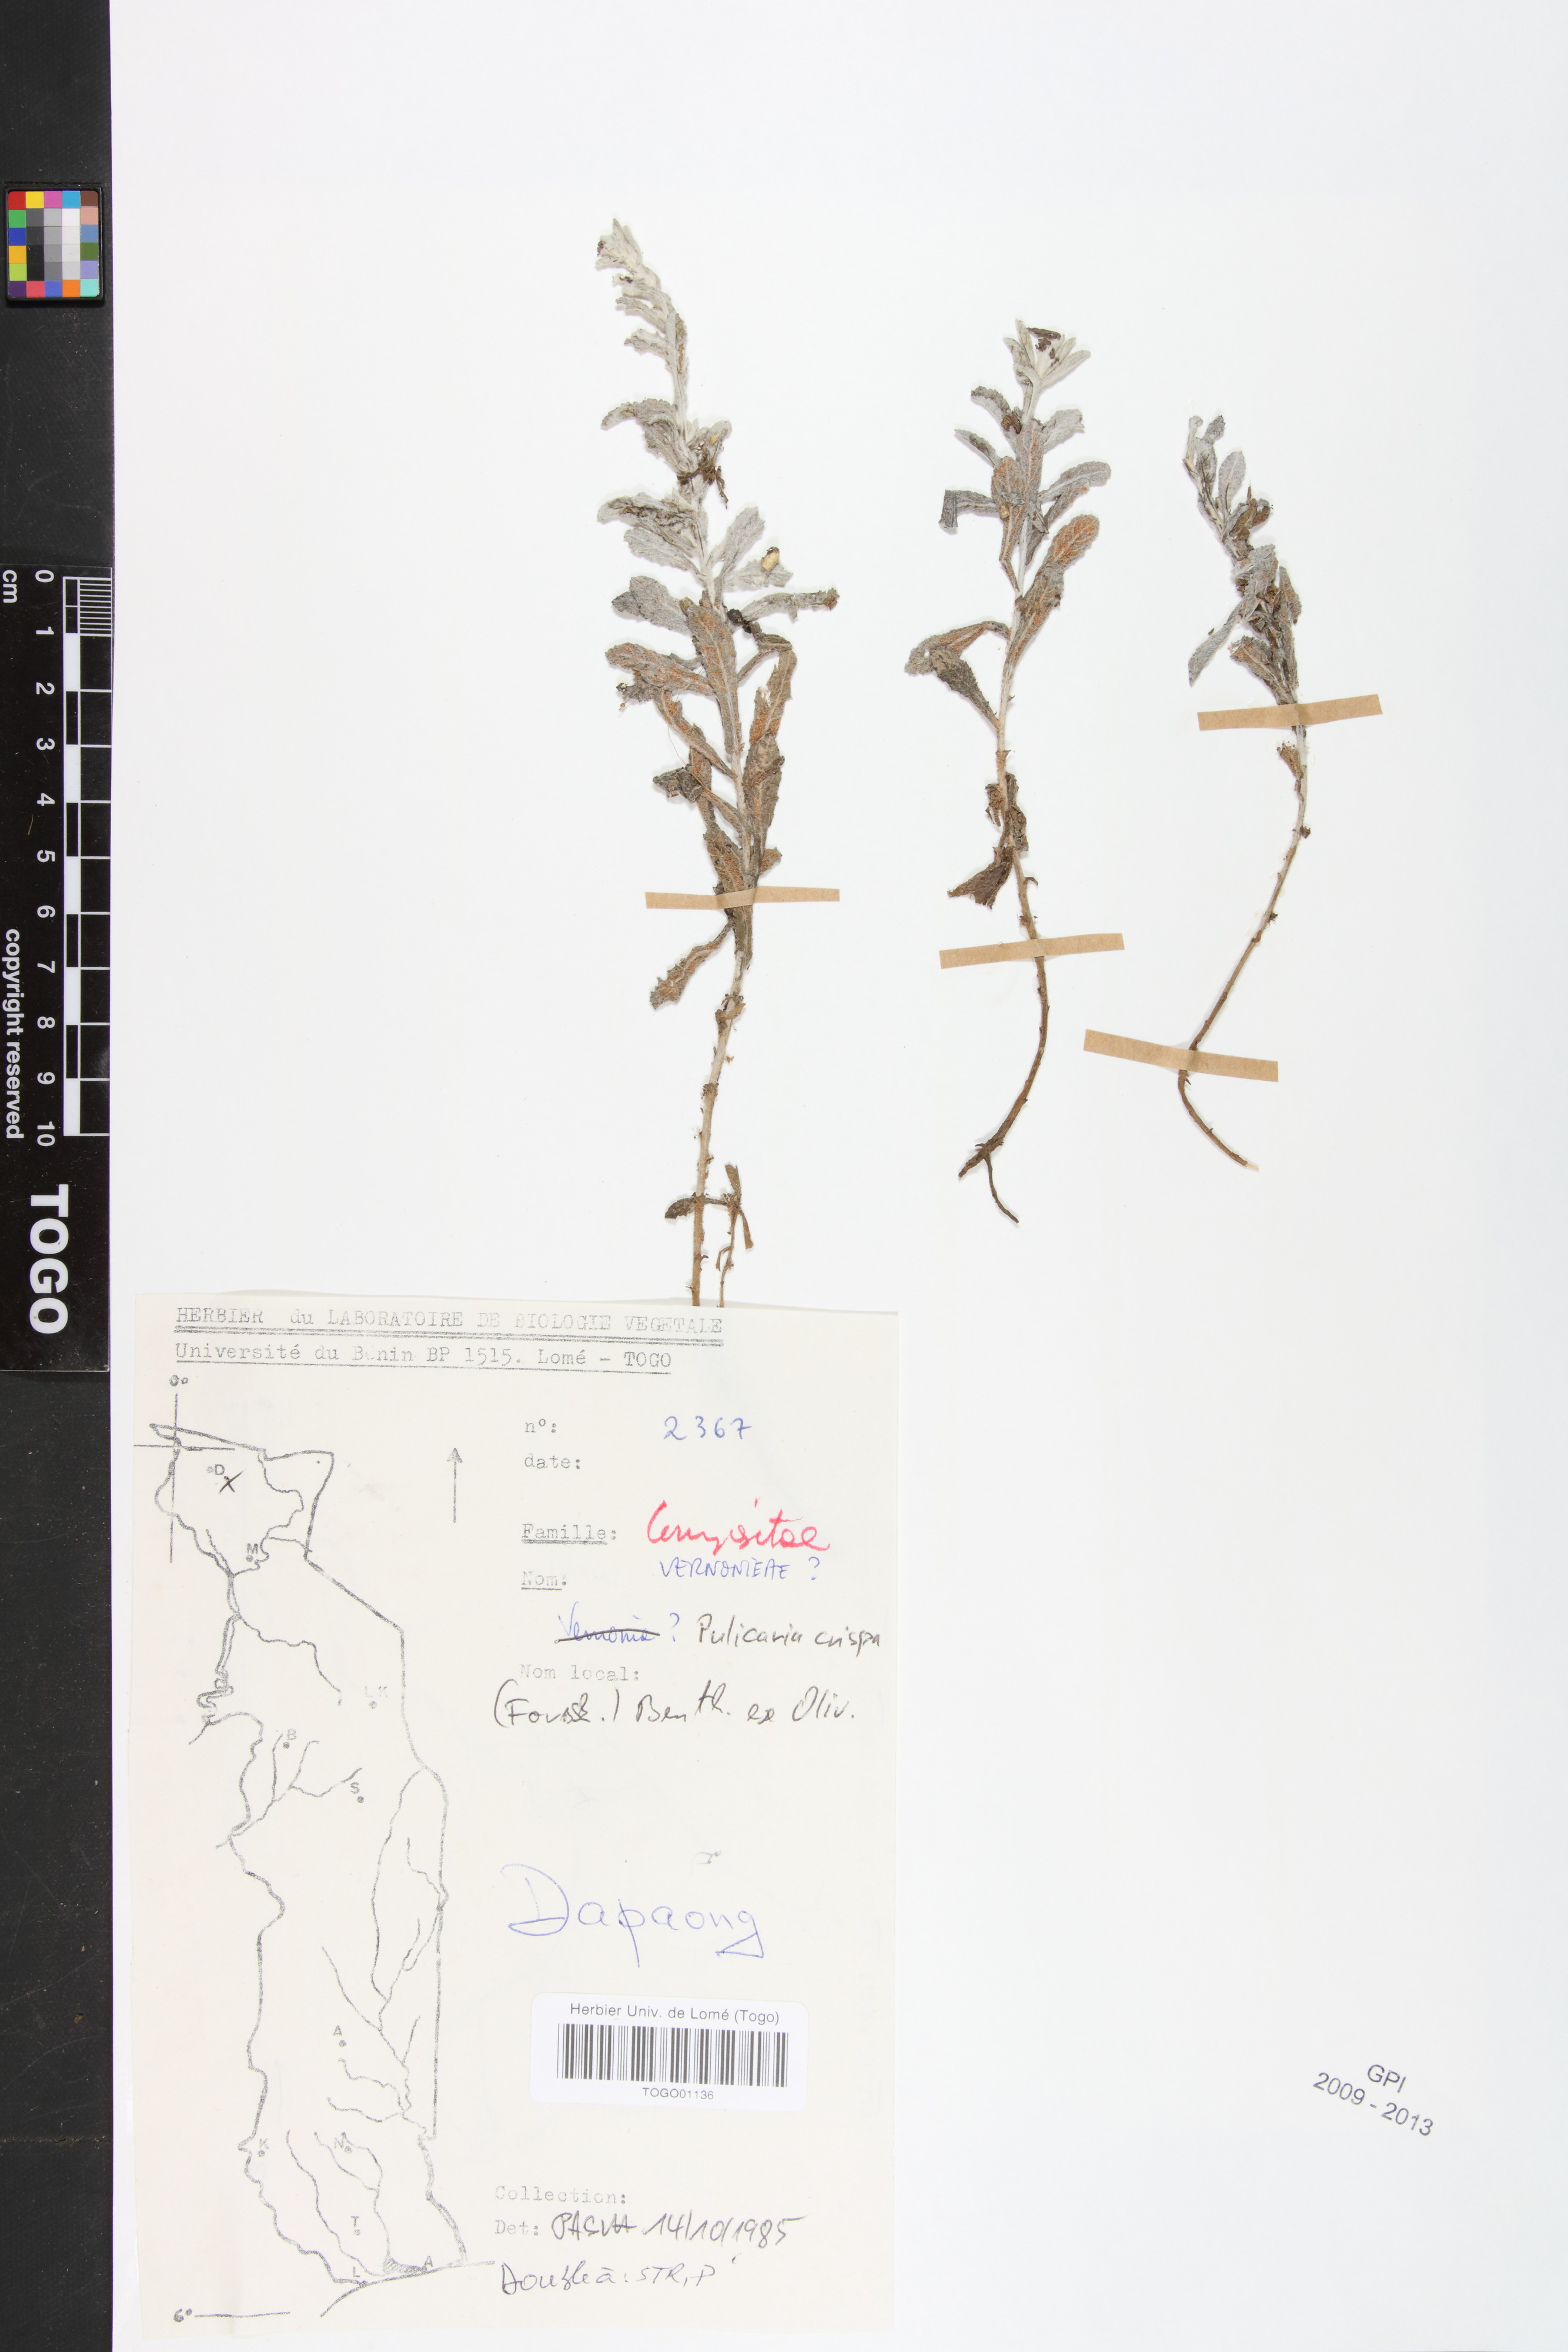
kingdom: Plantae
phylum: Tracheophyta
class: Magnoliopsida
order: Asterales
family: Asteraceae
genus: Pulicaria
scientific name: Pulicaria undulata
